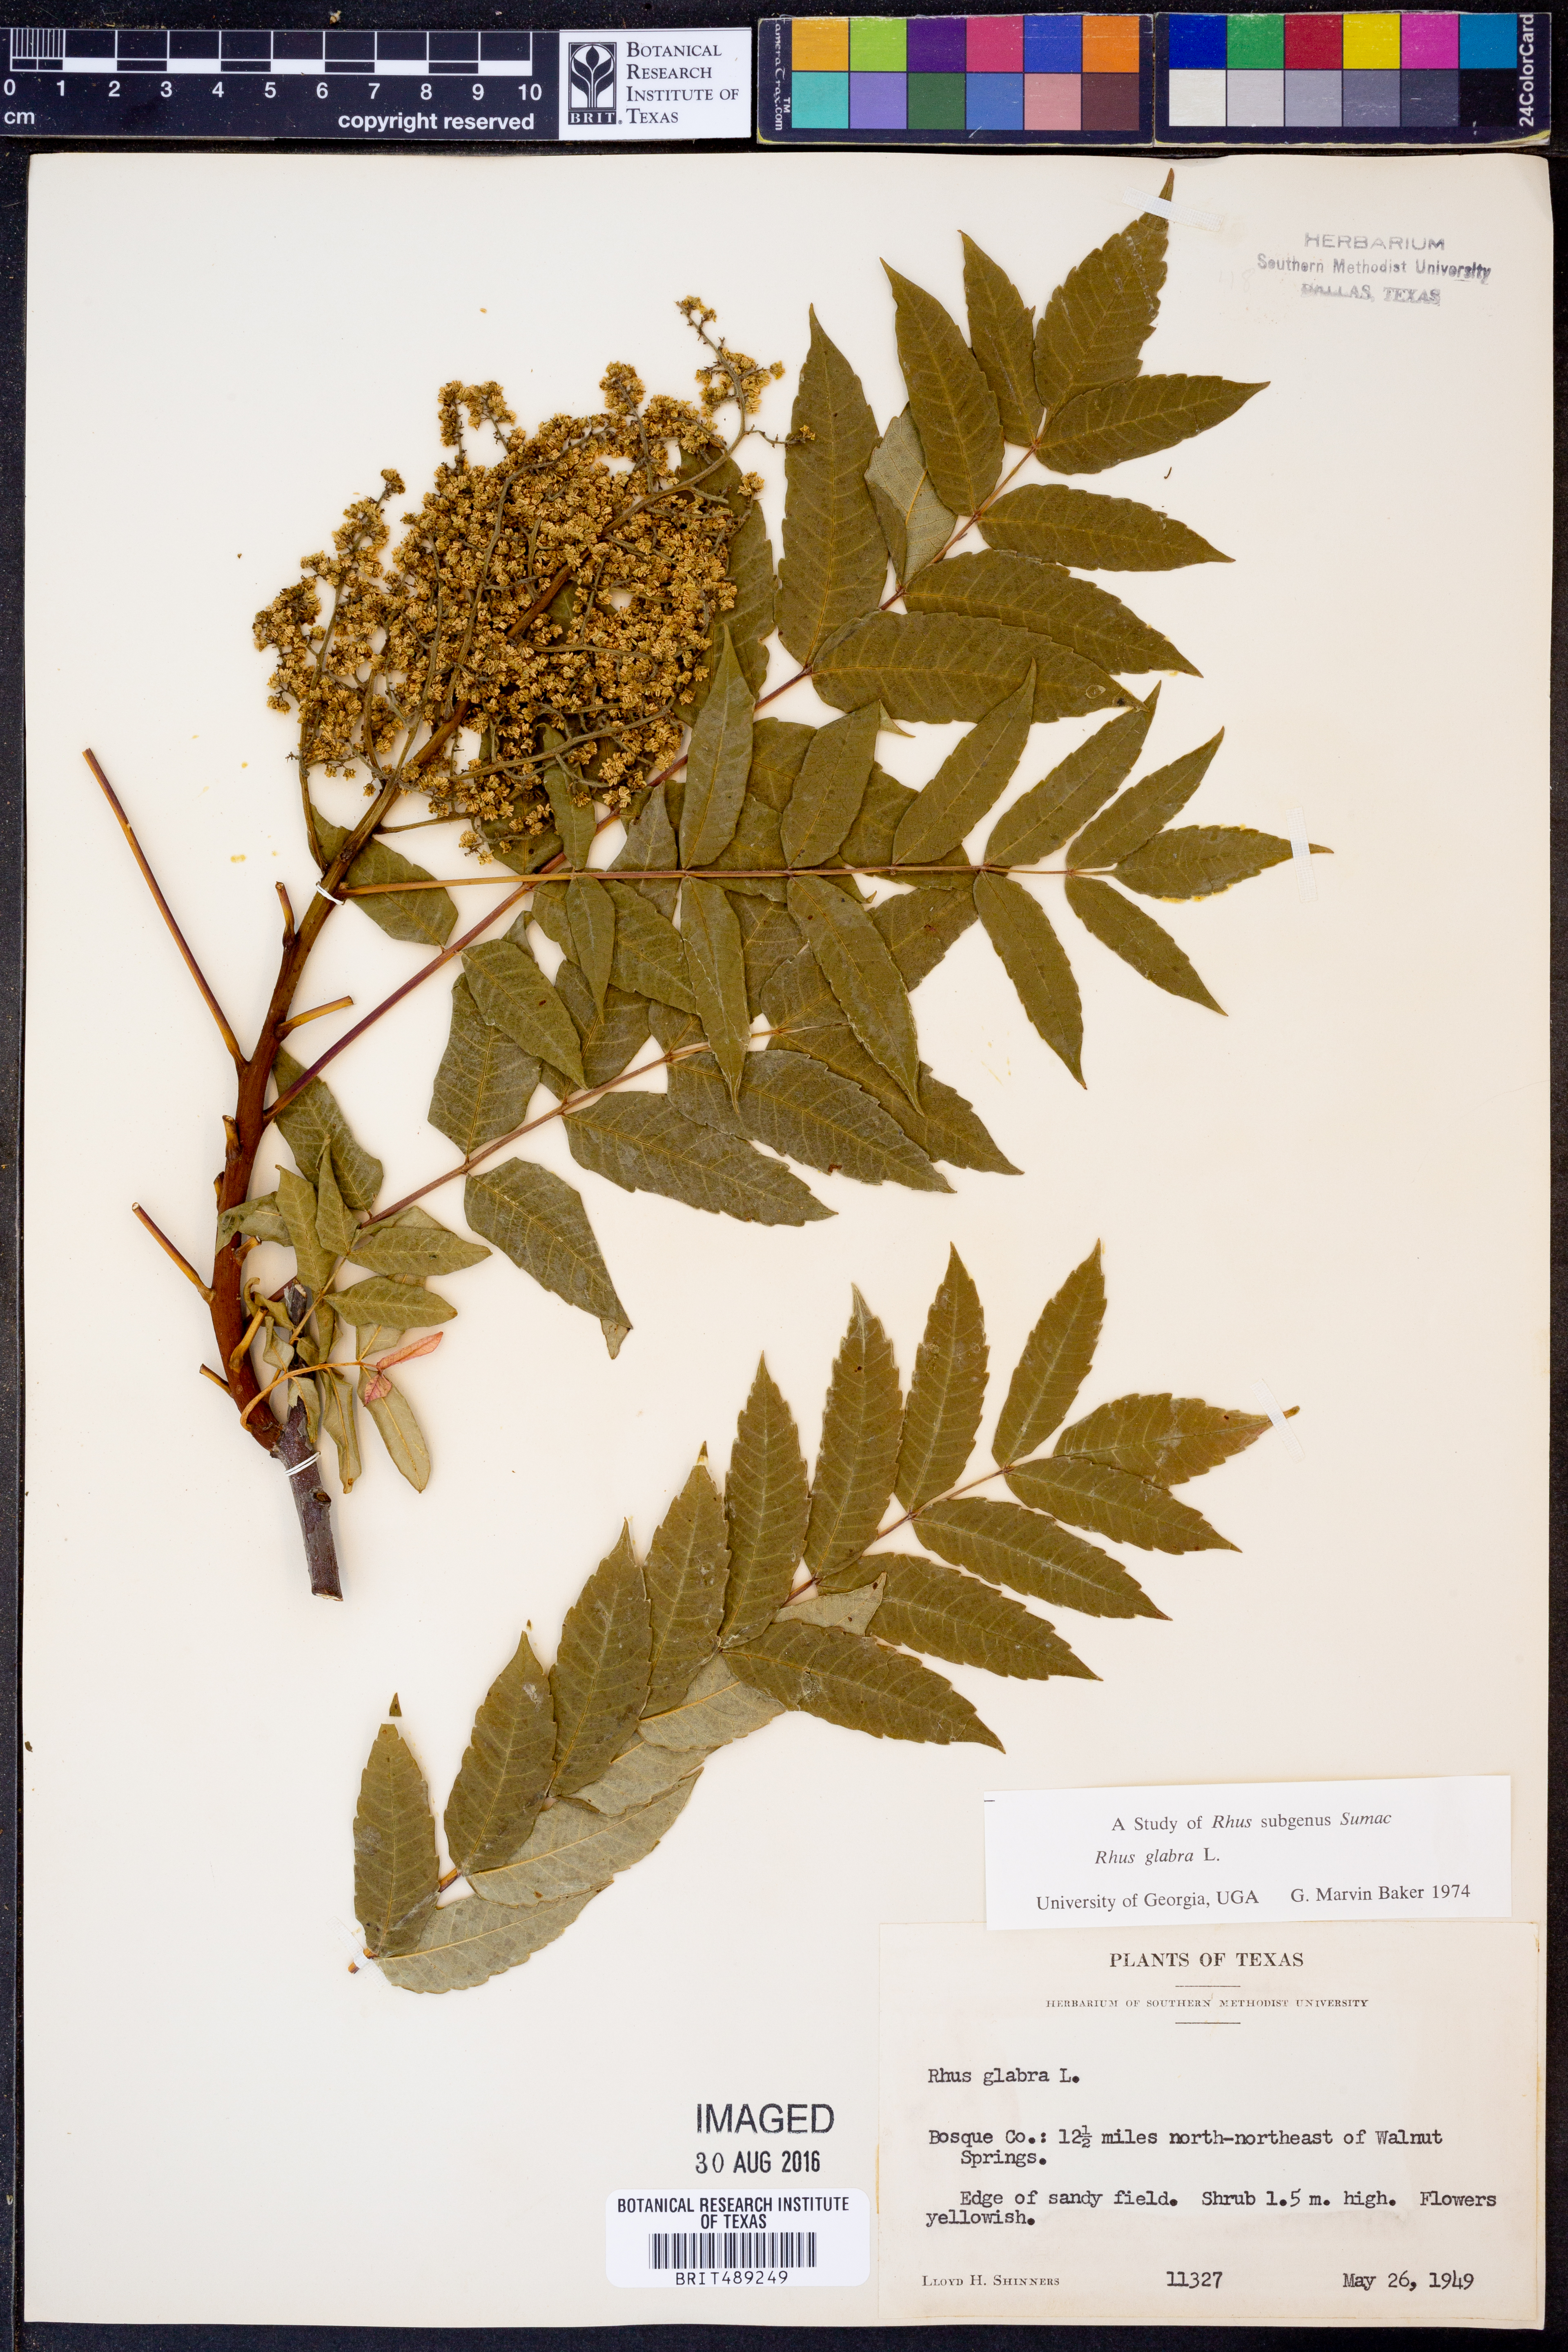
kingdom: Plantae
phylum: Tracheophyta
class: Magnoliopsida
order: Sapindales
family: Anacardiaceae
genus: Rhus
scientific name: Rhus glabra
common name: Scarlet sumac
